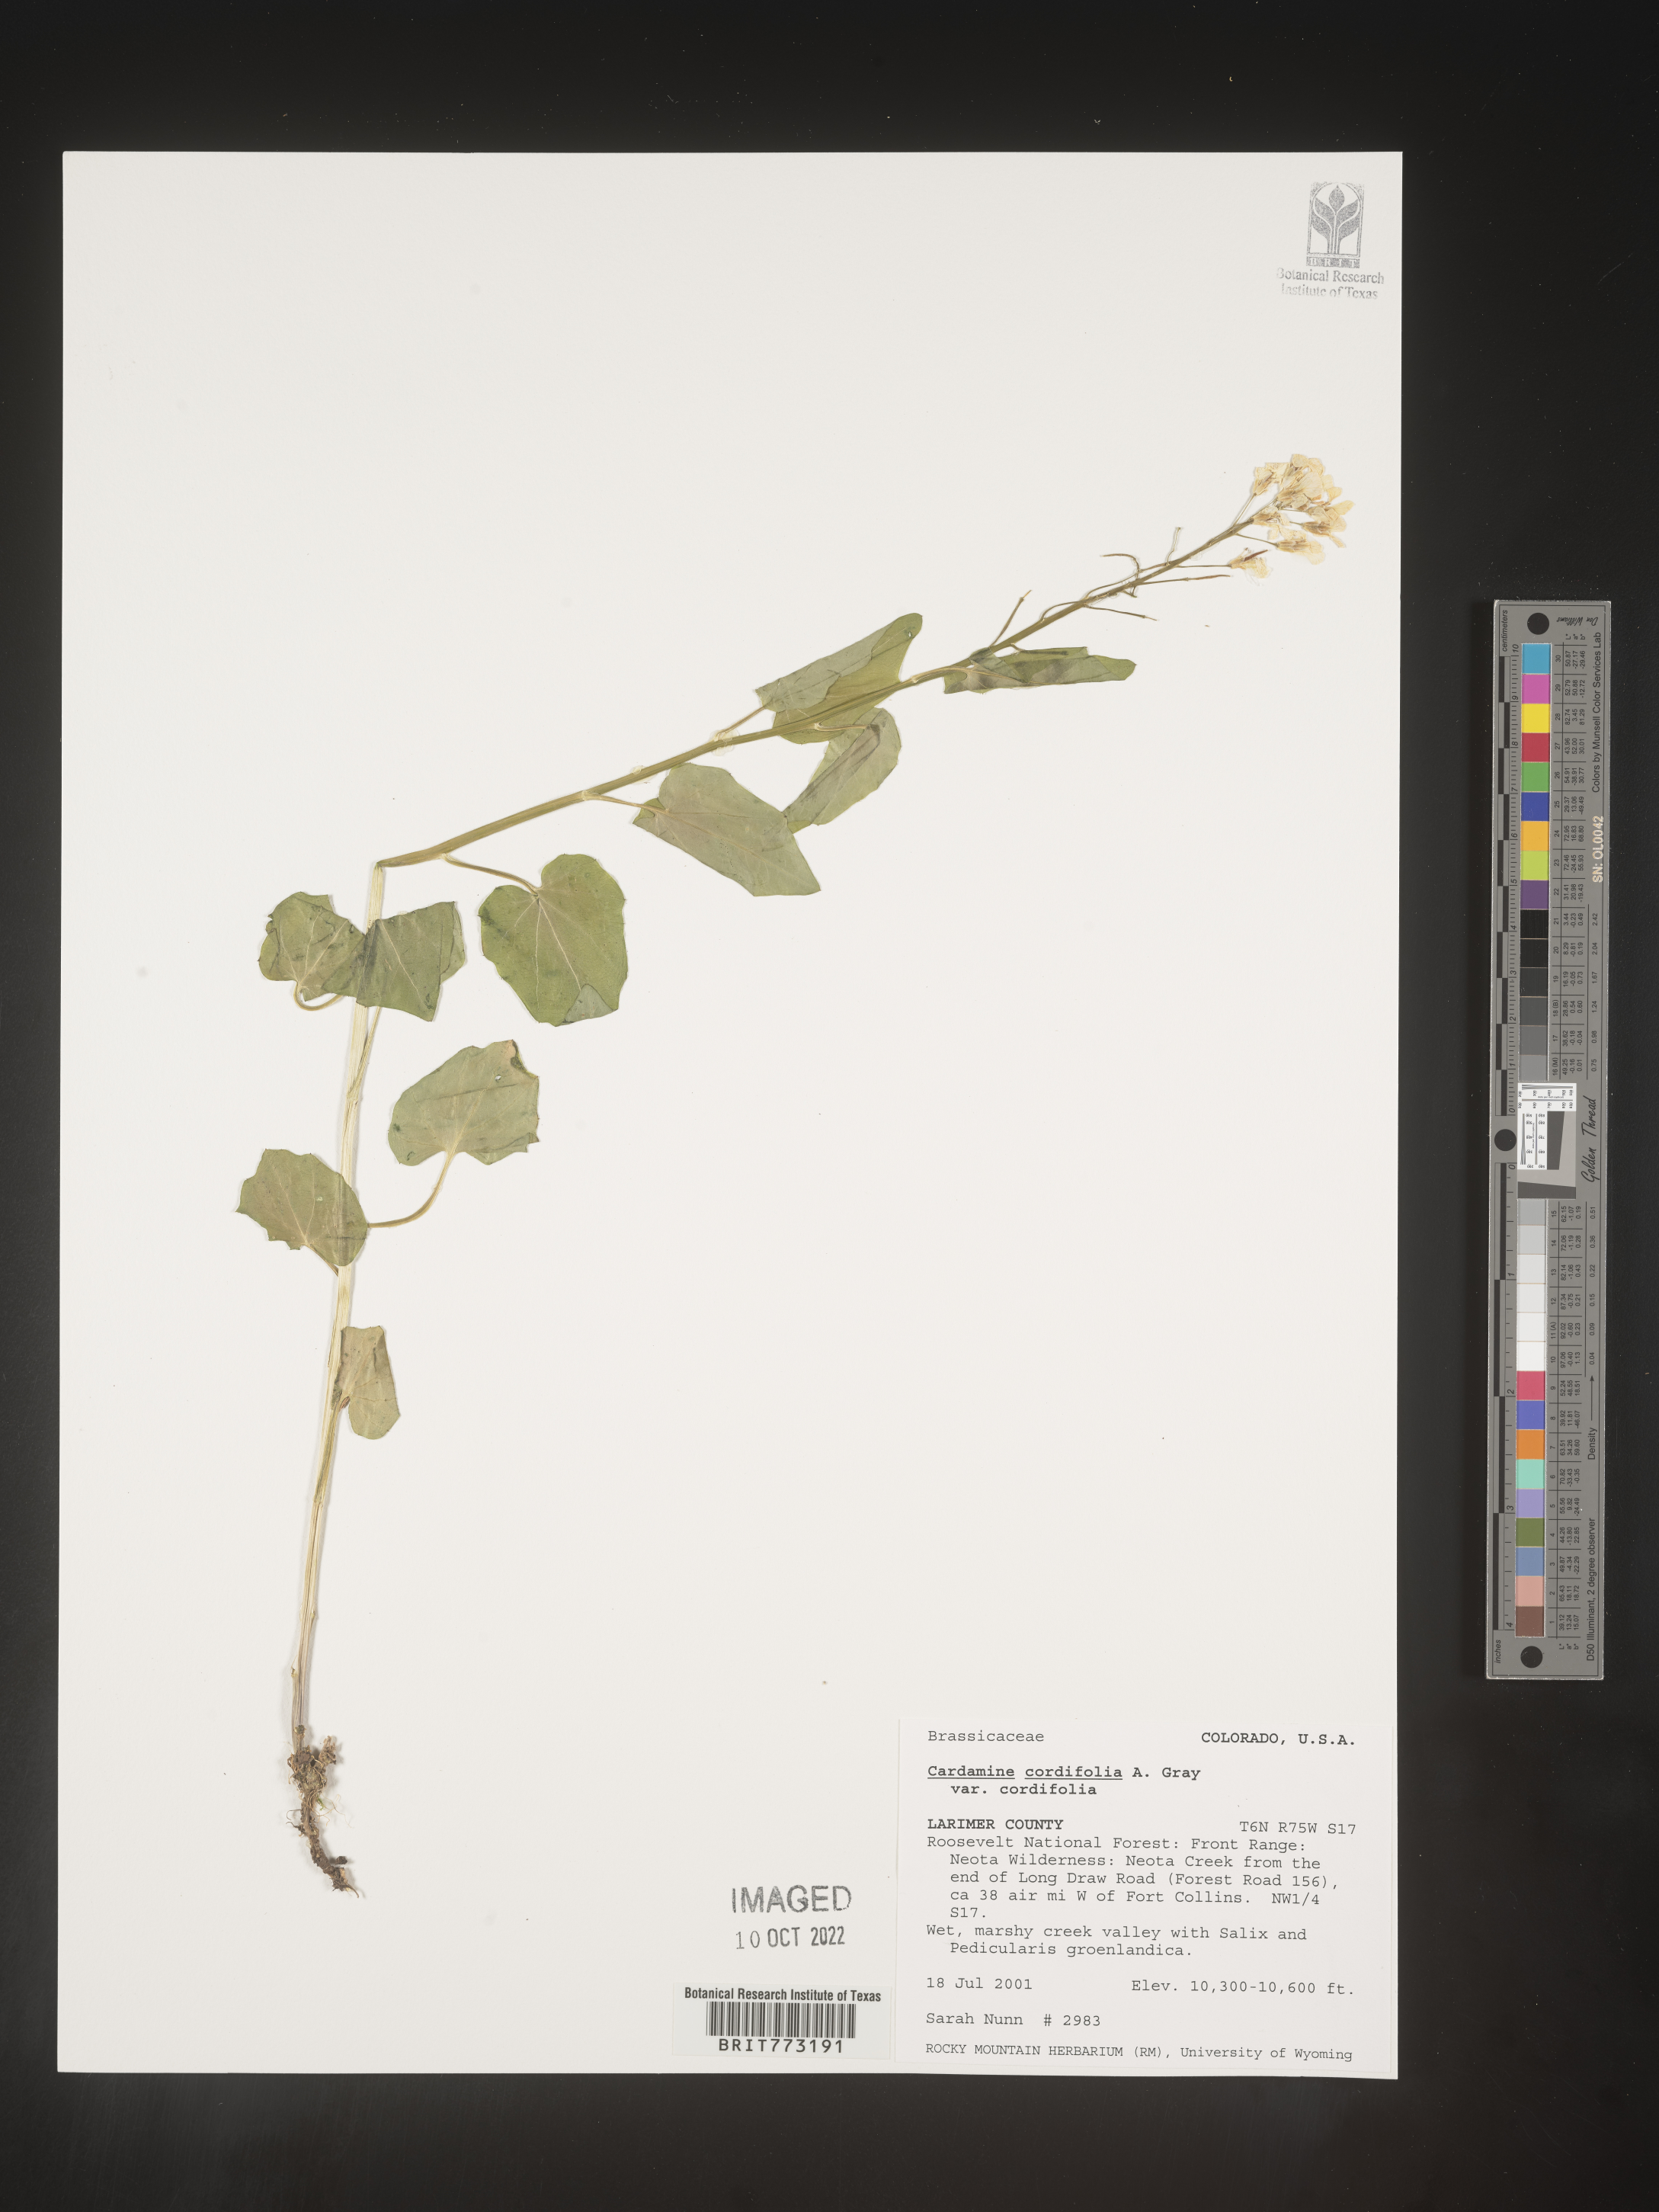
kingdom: Plantae
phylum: Tracheophyta
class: Magnoliopsida
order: Brassicales
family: Brassicaceae
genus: Cardamine
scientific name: Cardamine
